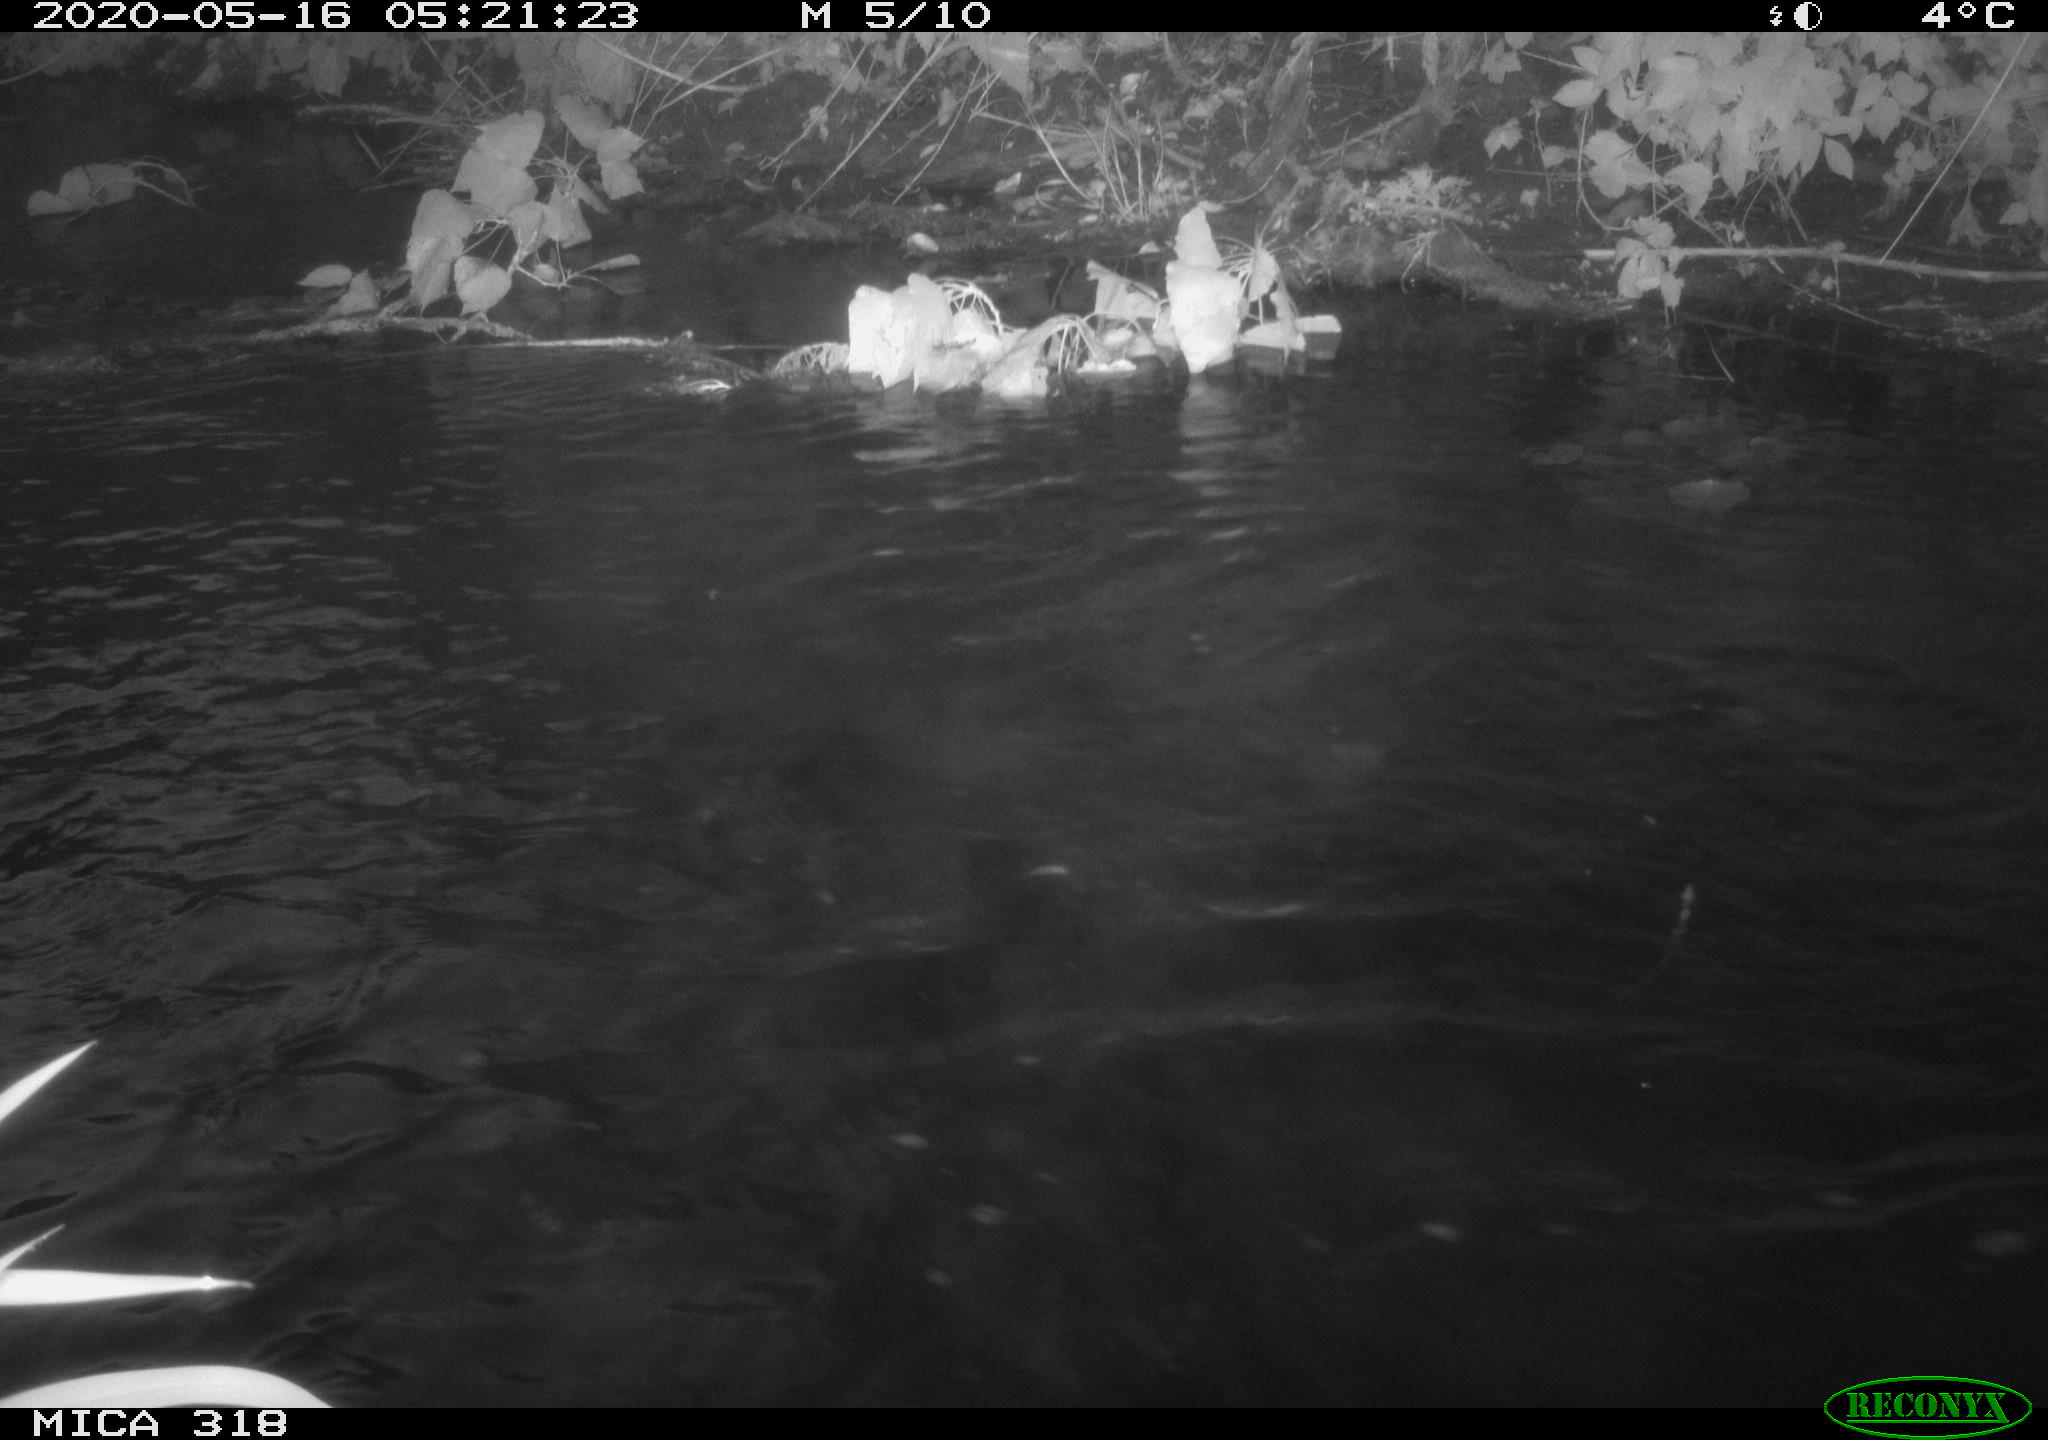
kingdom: Animalia
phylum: Chordata
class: Aves
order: Anseriformes
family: Anatidae
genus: Anas
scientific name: Anas platyrhynchos
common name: Mallard
